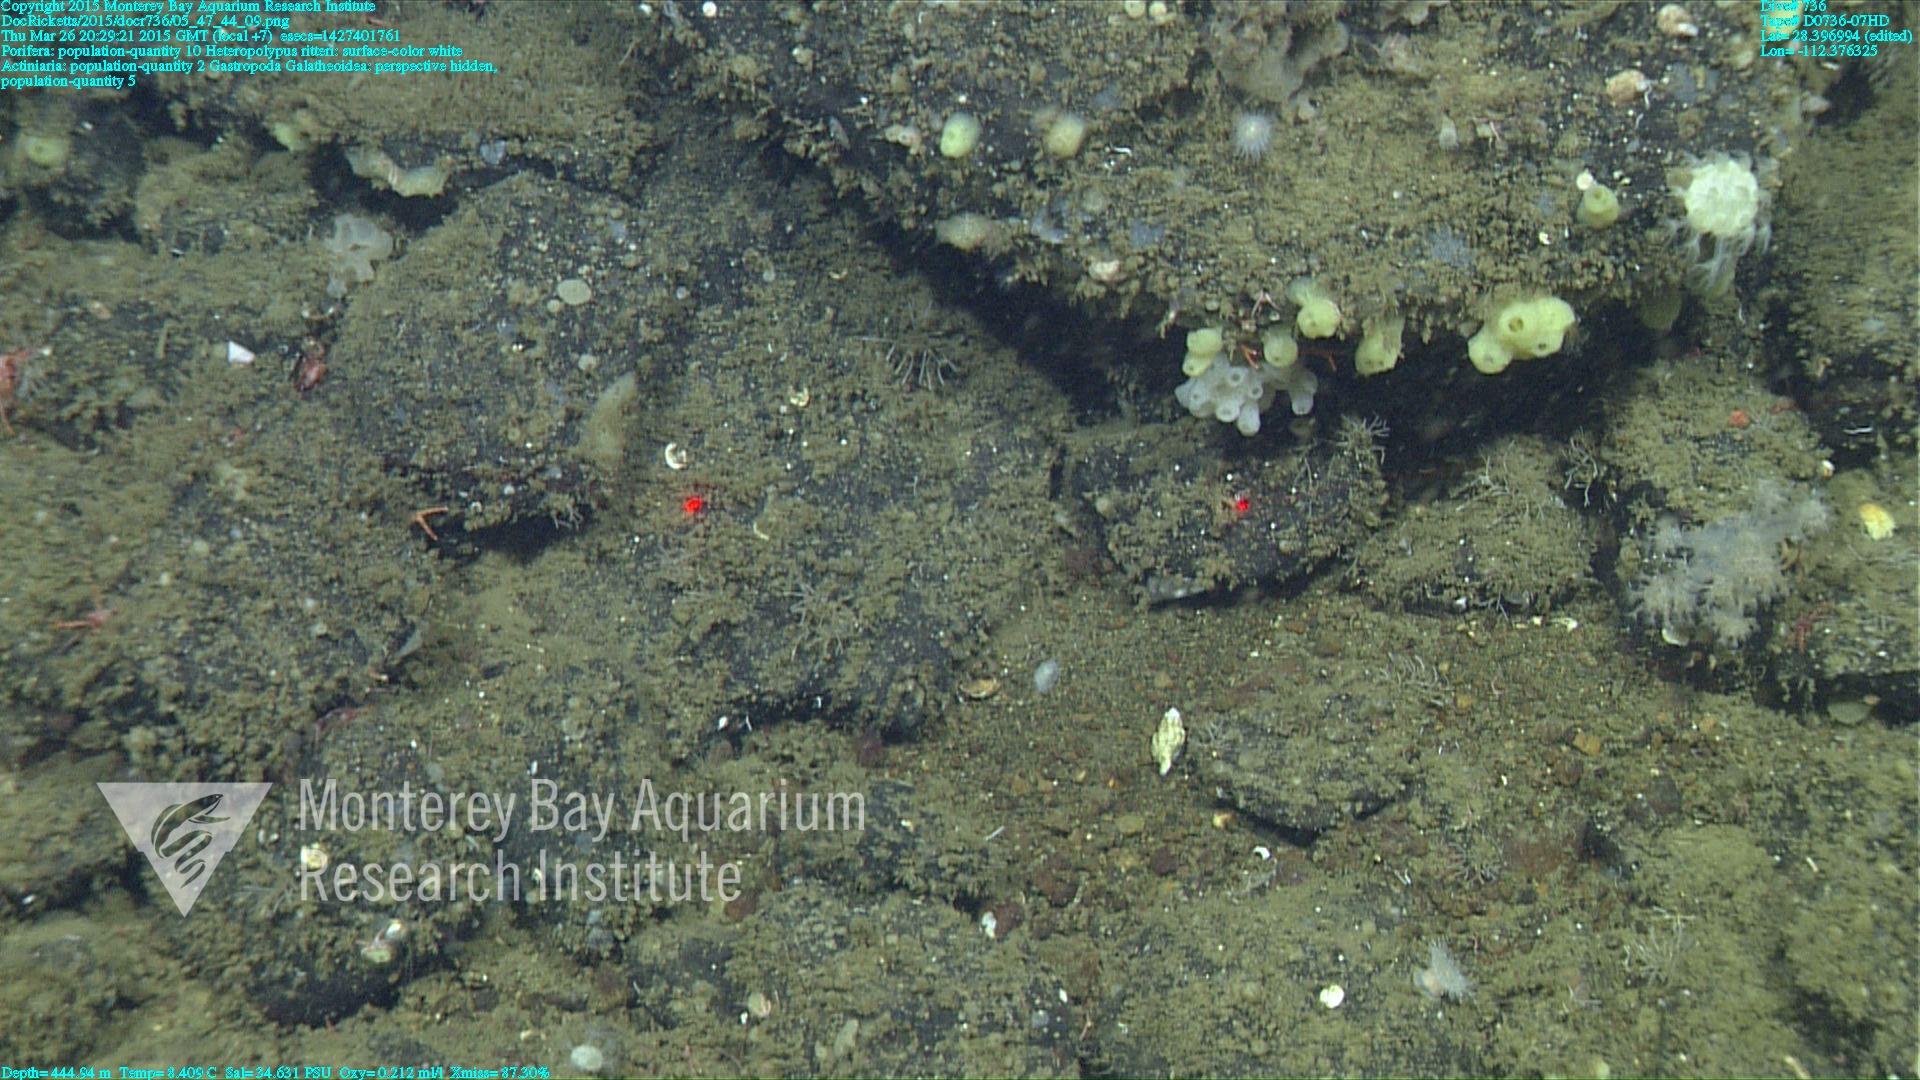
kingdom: Animalia
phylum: Cnidaria
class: Anthozoa
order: Scleralcyonacea
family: Coralliidae
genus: Heteropolypus
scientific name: Heteropolypus ritteri
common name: Ritter's soft coral
